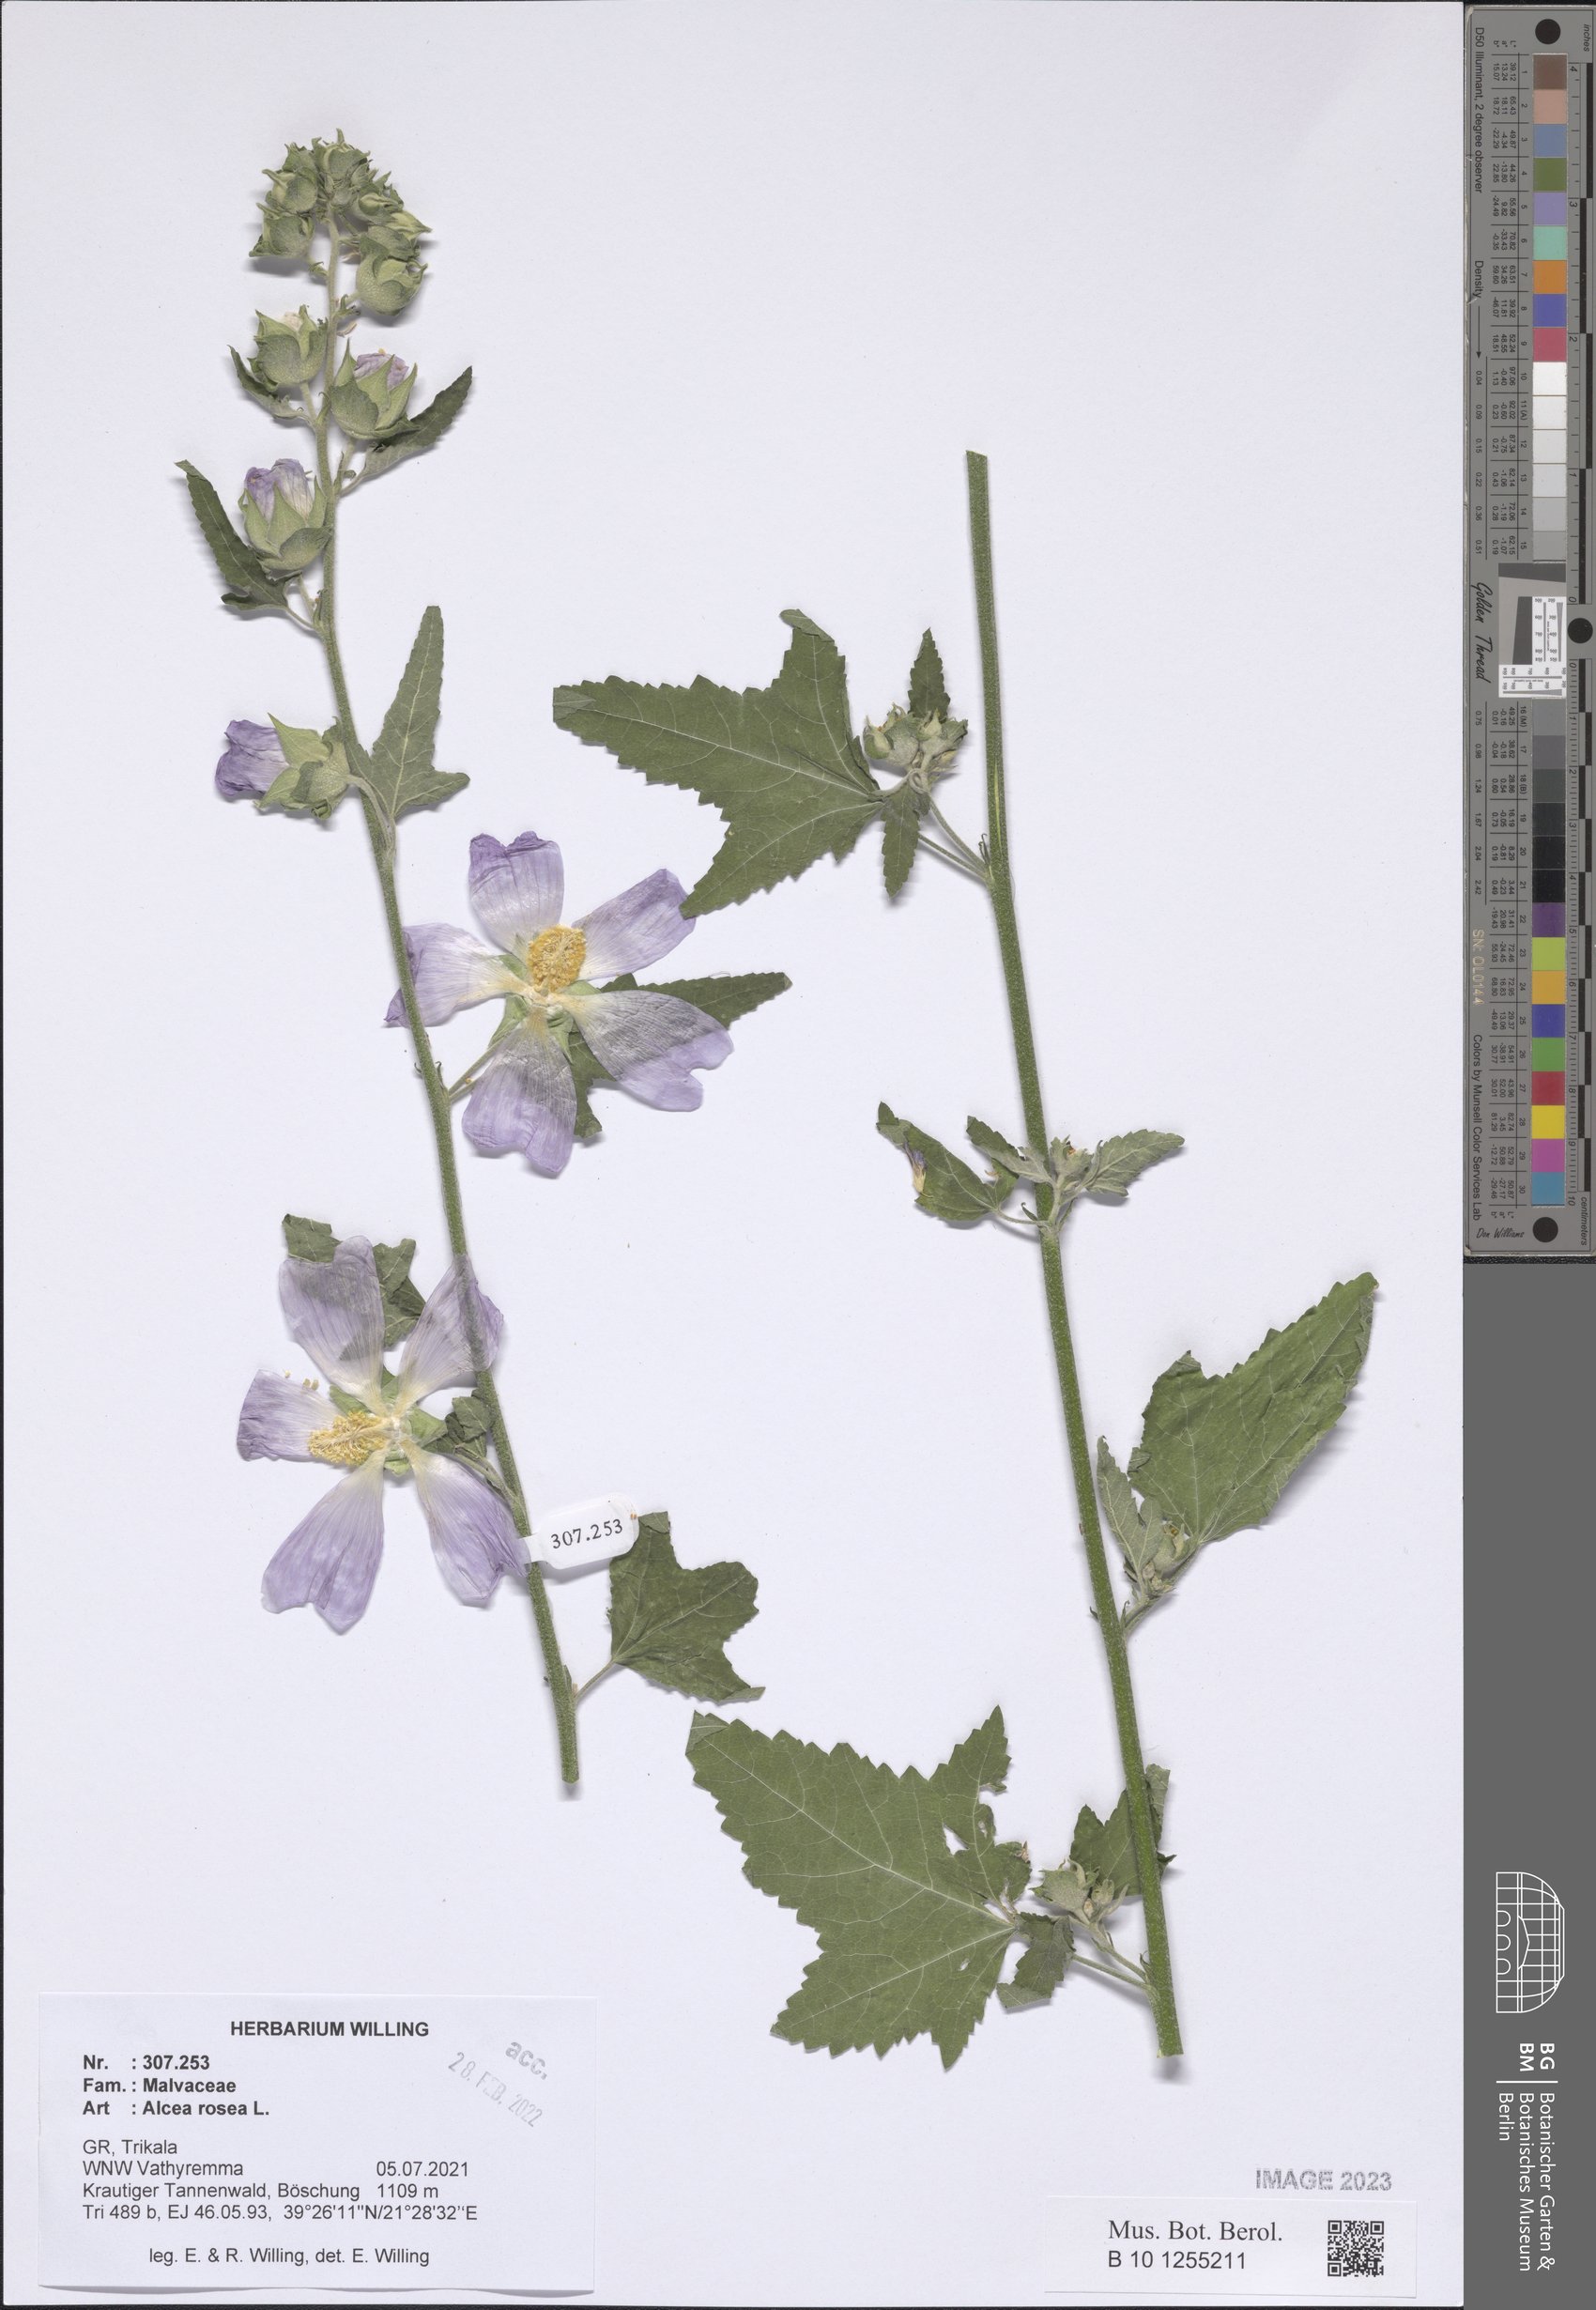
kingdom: Plantae
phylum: Tracheophyta
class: Magnoliopsida
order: Malvales
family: Malvaceae
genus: Alcea
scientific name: Alcea rosea
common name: Hollyhock
